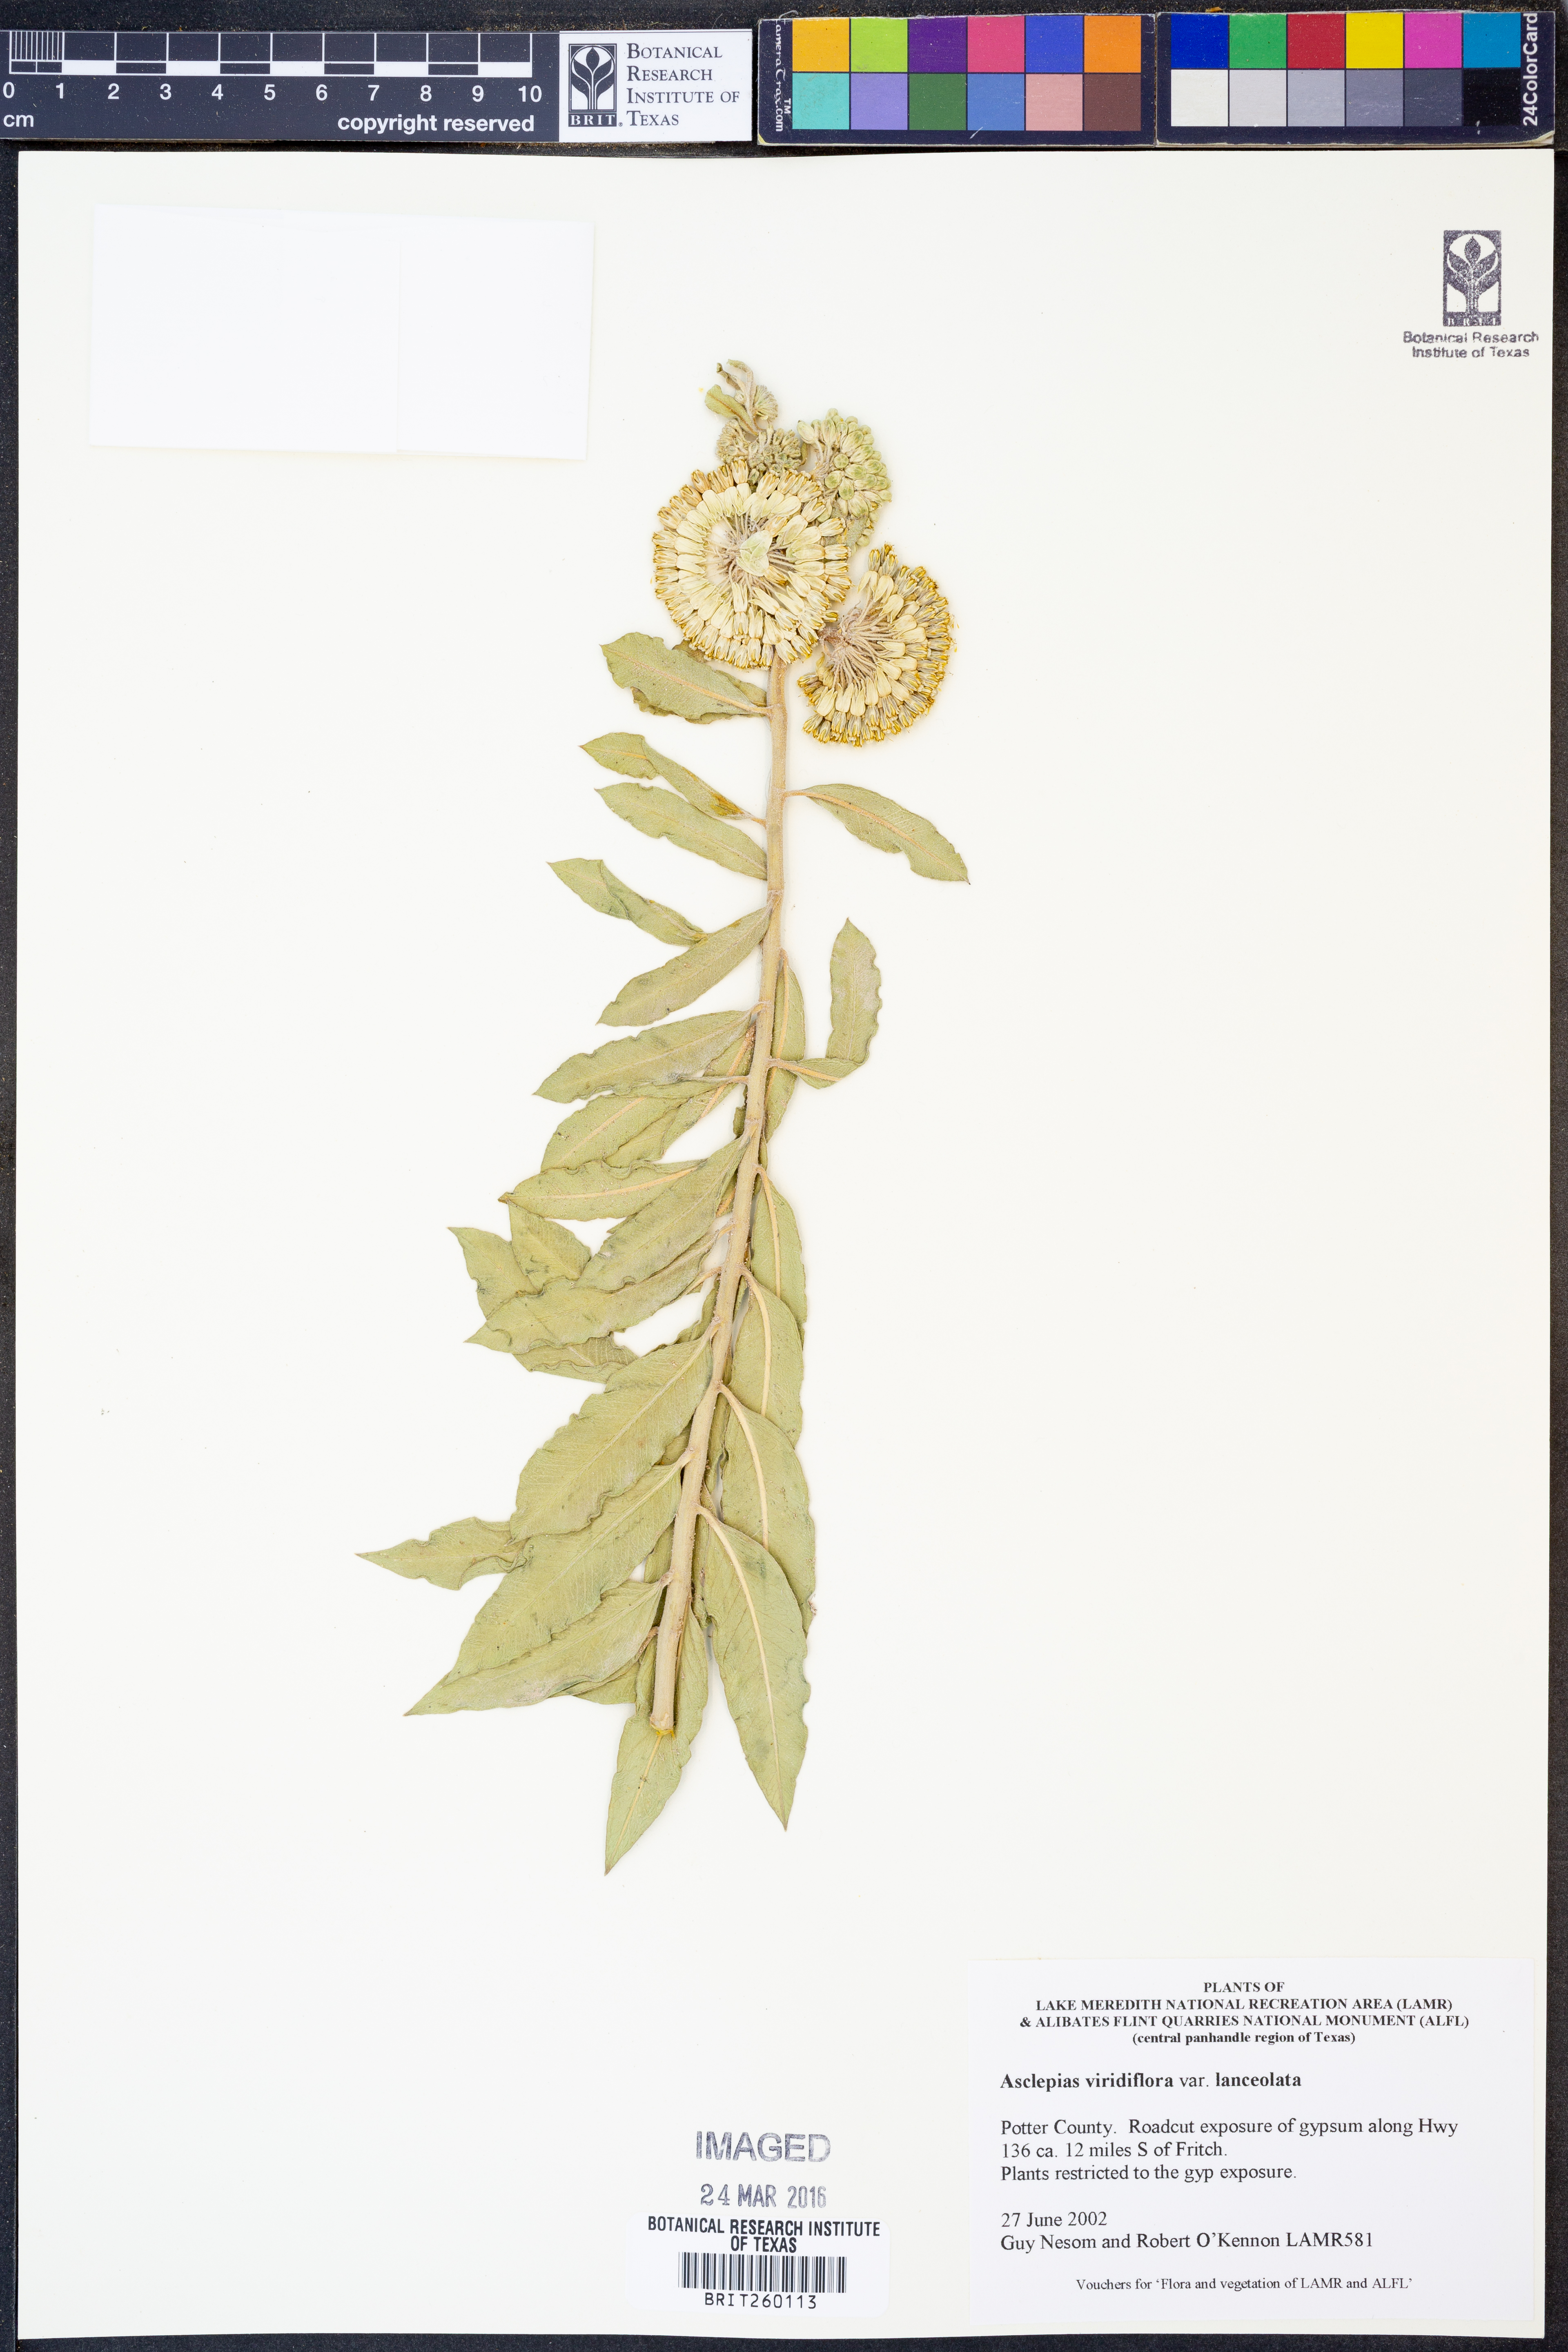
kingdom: Plantae
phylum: Tracheophyta
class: Magnoliopsida
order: Gentianales
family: Apocynaceae
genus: Asclepias
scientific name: Asclepias viridiflora
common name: Green comet milkweed
